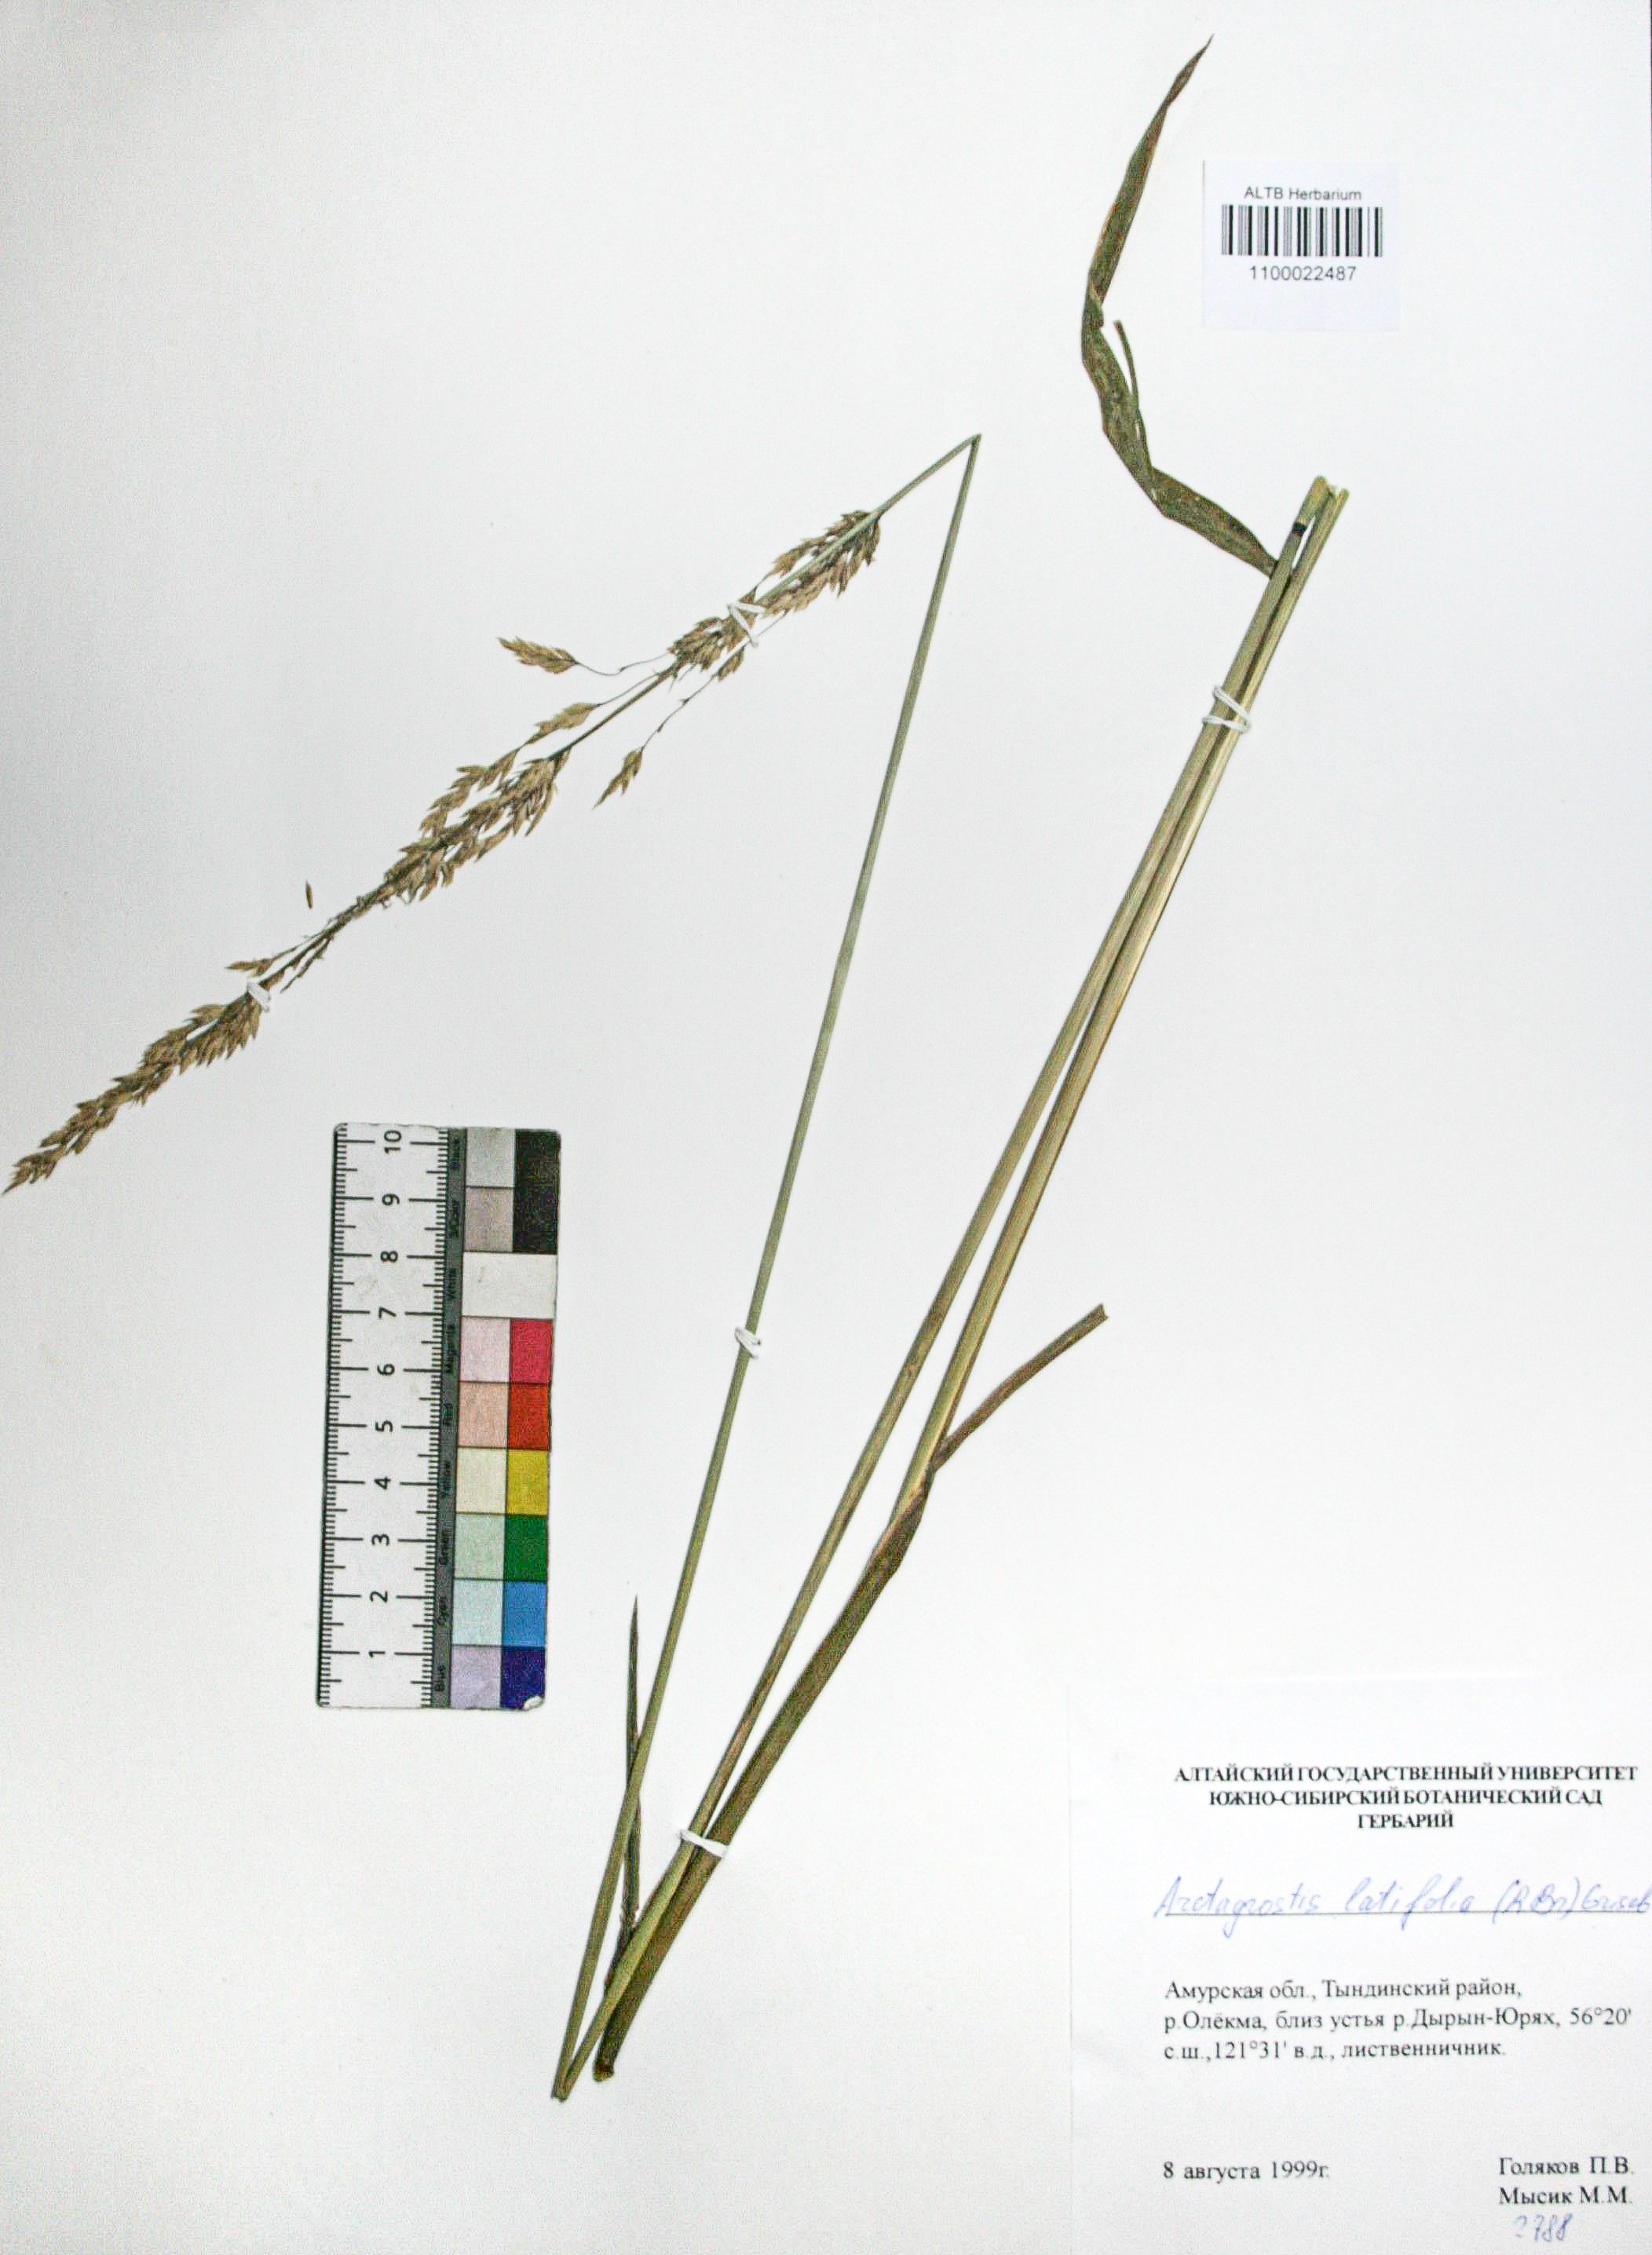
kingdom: Plantae
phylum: Tracheophyta
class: Liliopsida
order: Poales
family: Poaceae
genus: Arctagrostis
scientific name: Arctagrostis latifolia
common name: Arctic grass
